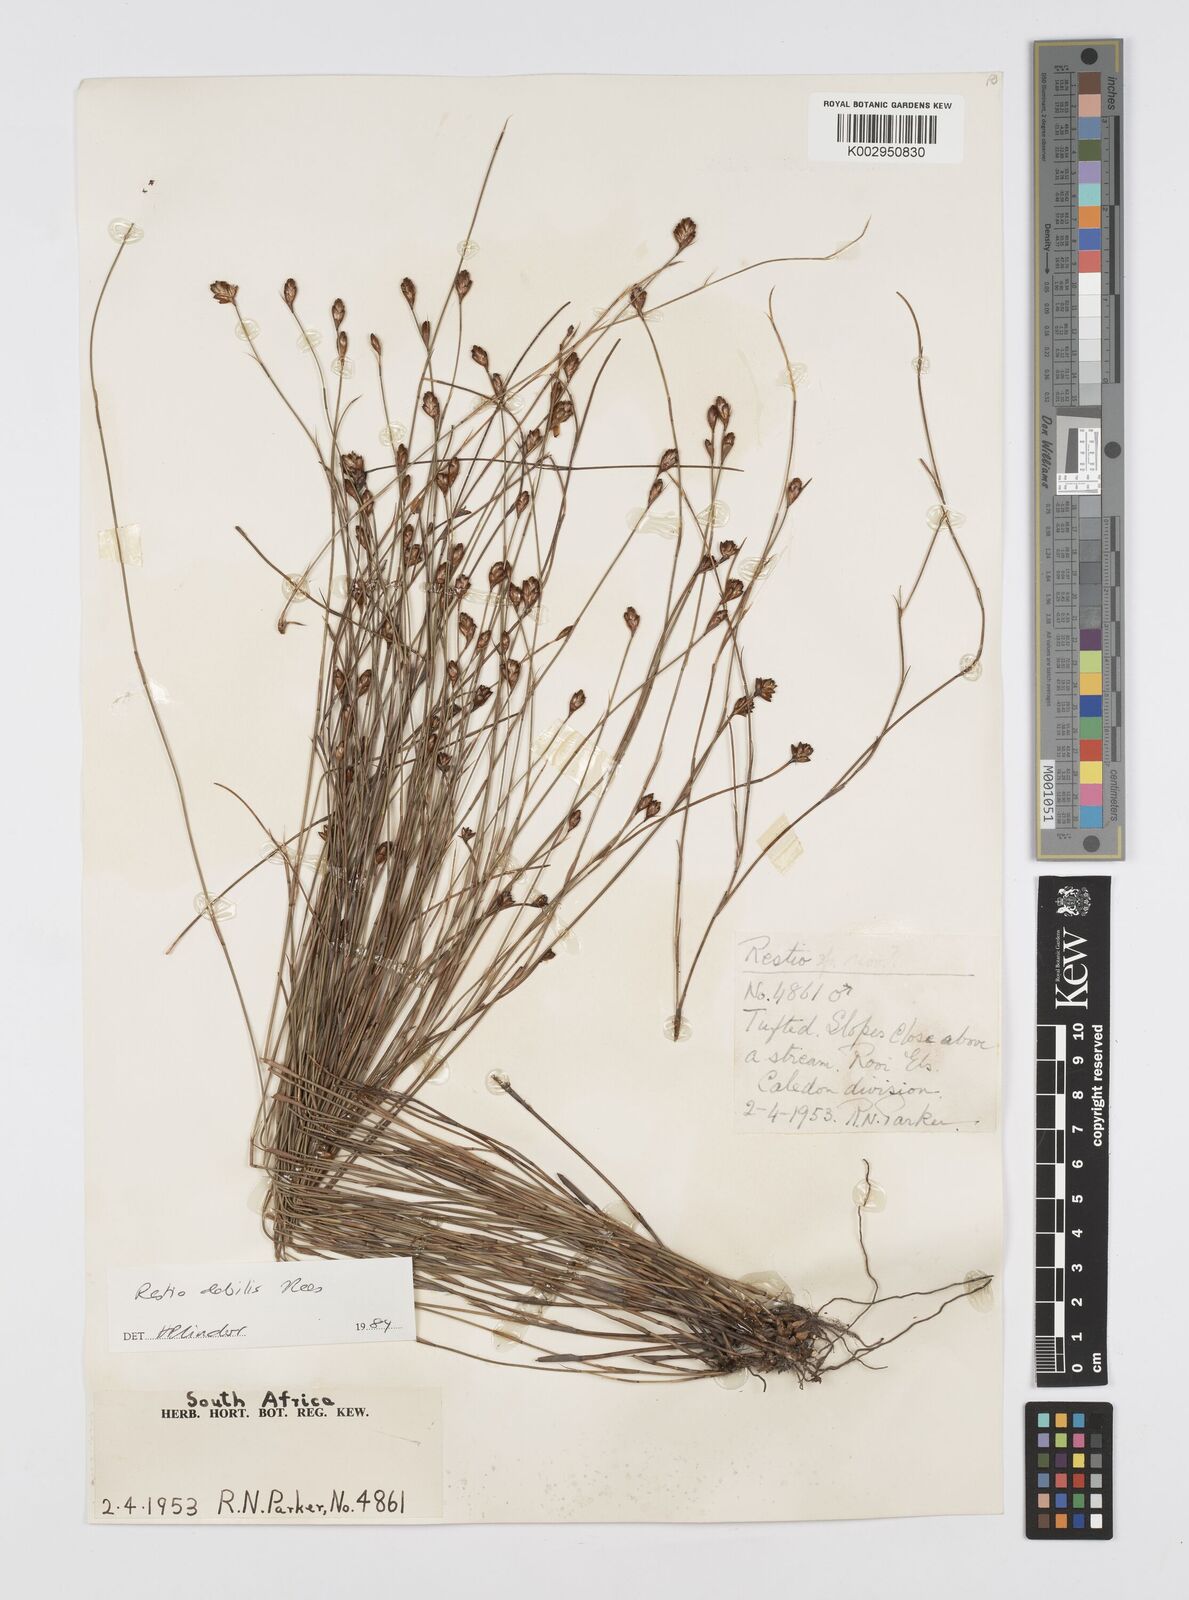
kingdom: Plantae
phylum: Tracheophyta
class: Liliopsida
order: Poales
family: Restionaceae
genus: Restio
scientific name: Restio debilis
